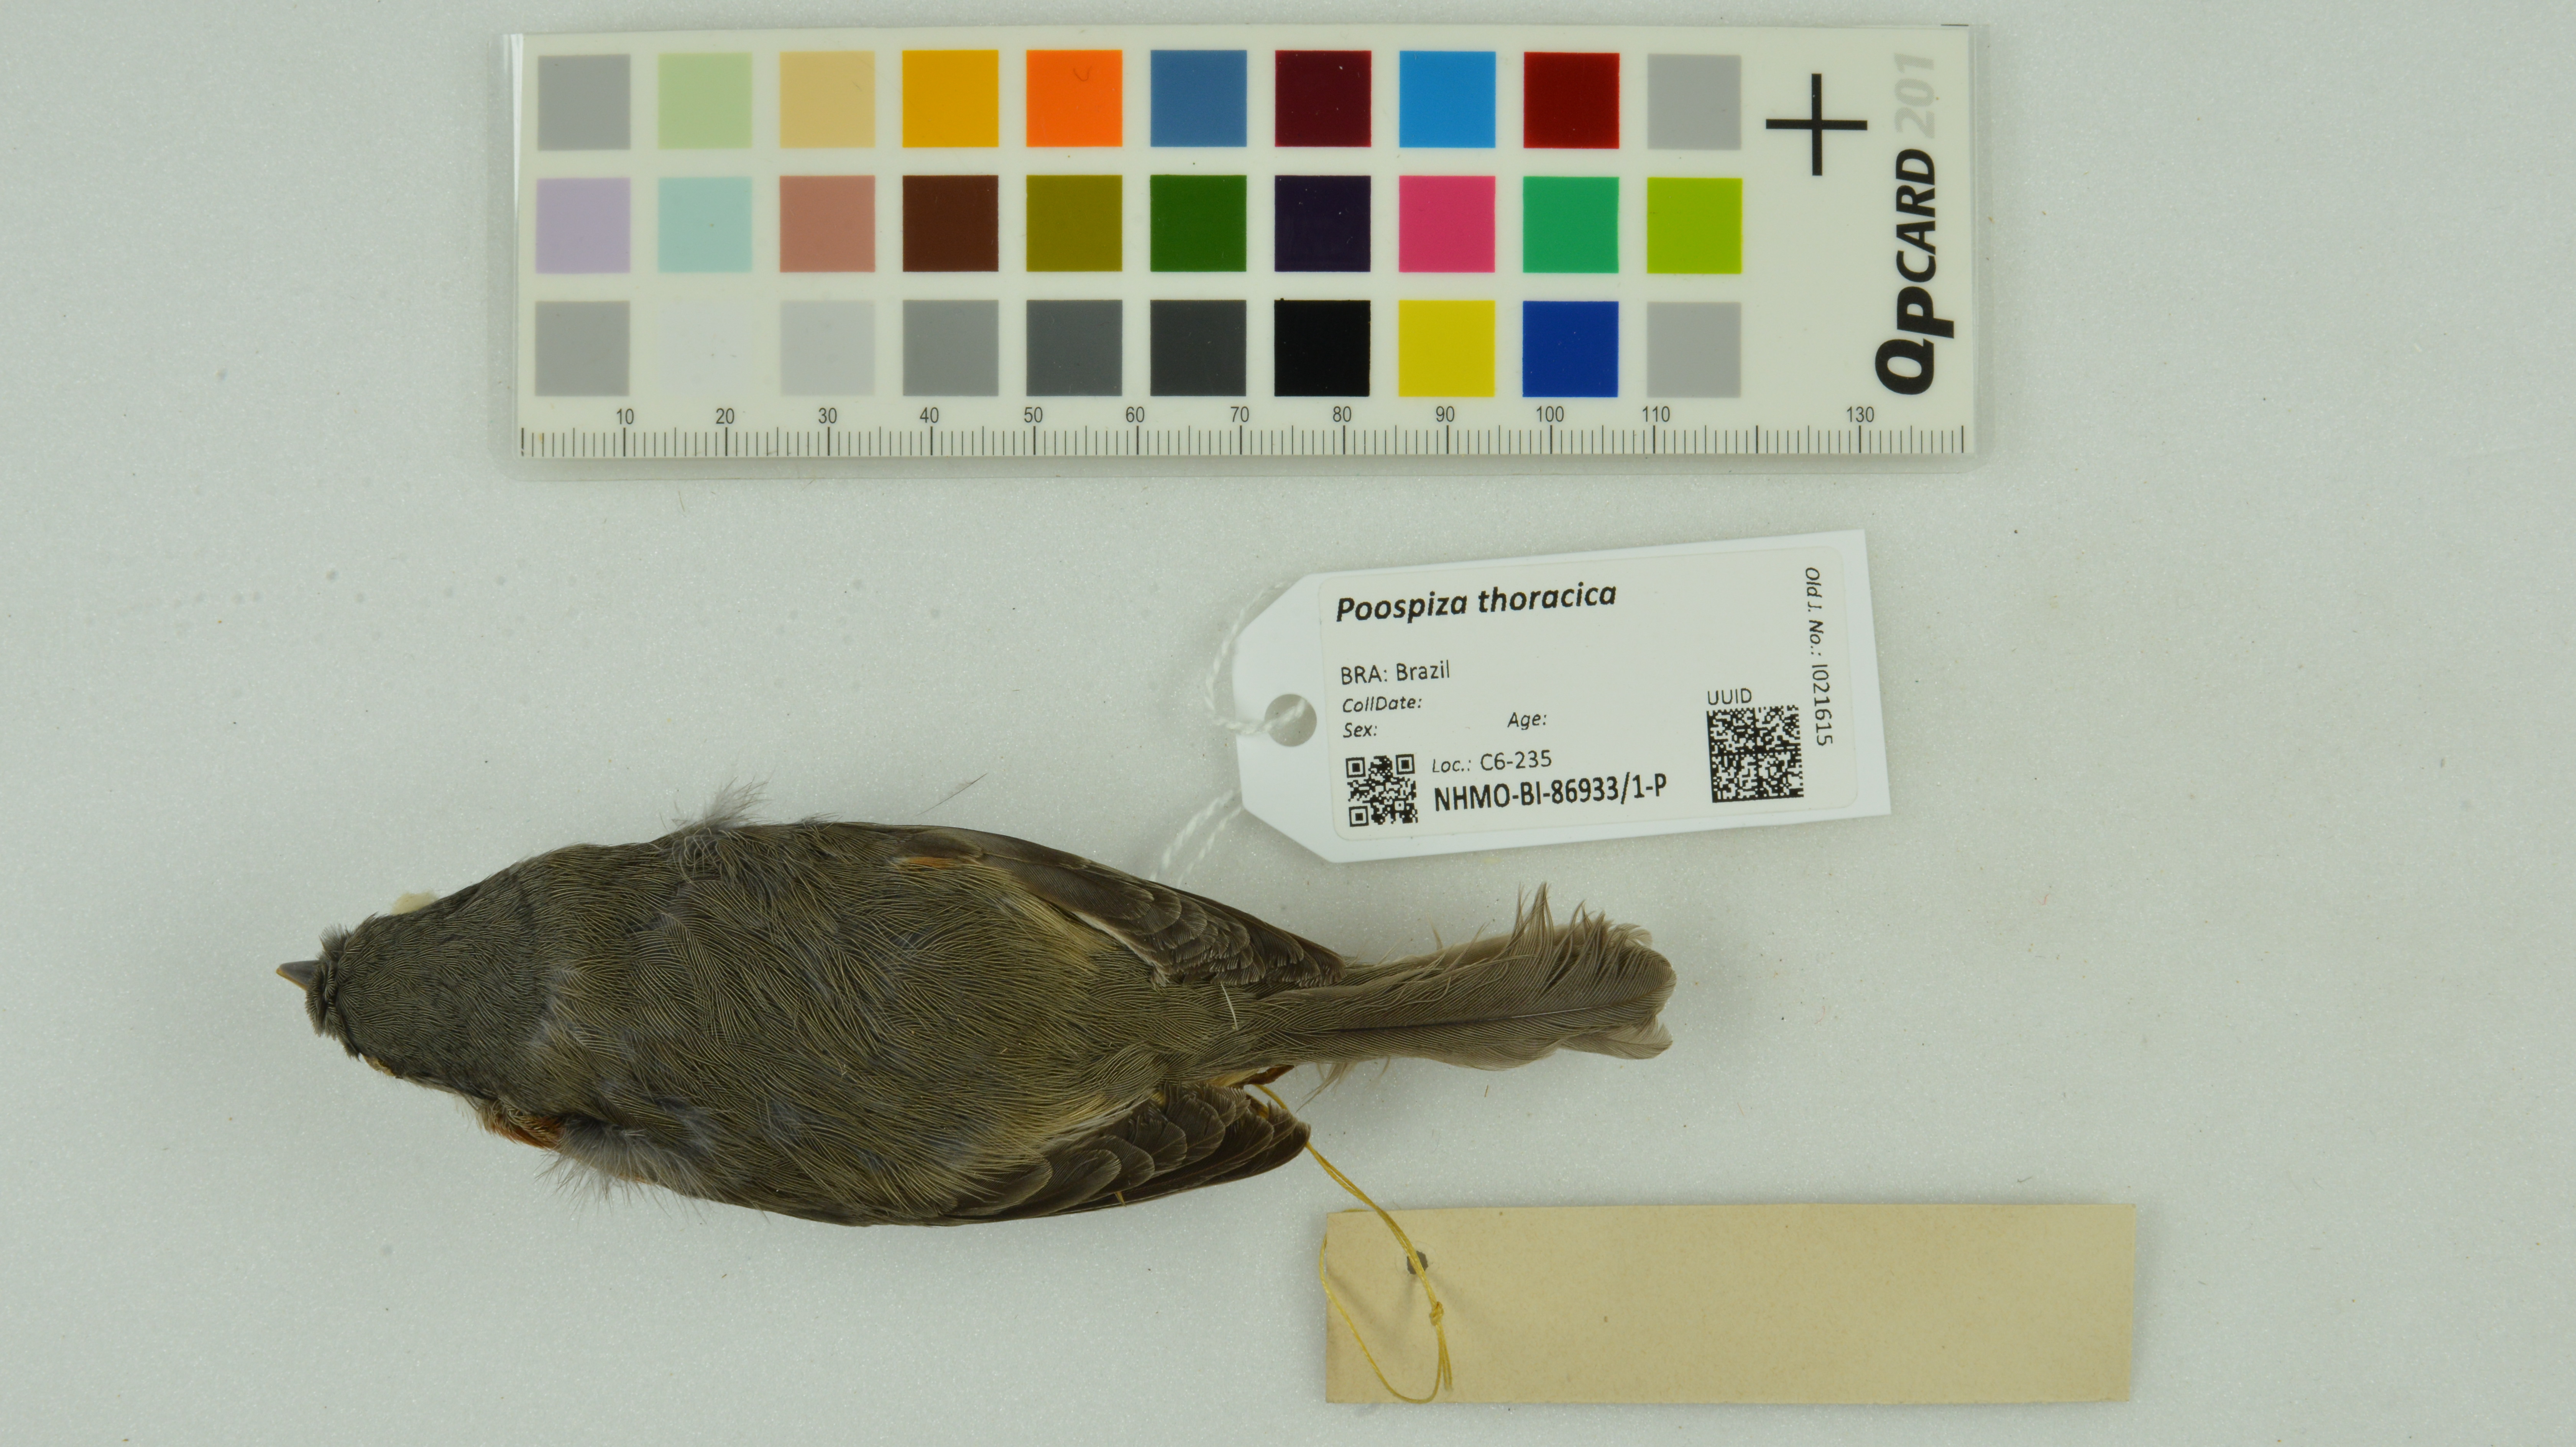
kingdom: Animalia
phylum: Chordata
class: Aves
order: Passeriformes
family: Thraupidae
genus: Castanozoster
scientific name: Castanozoster thoracicus
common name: Bay-chested warbling-finch
